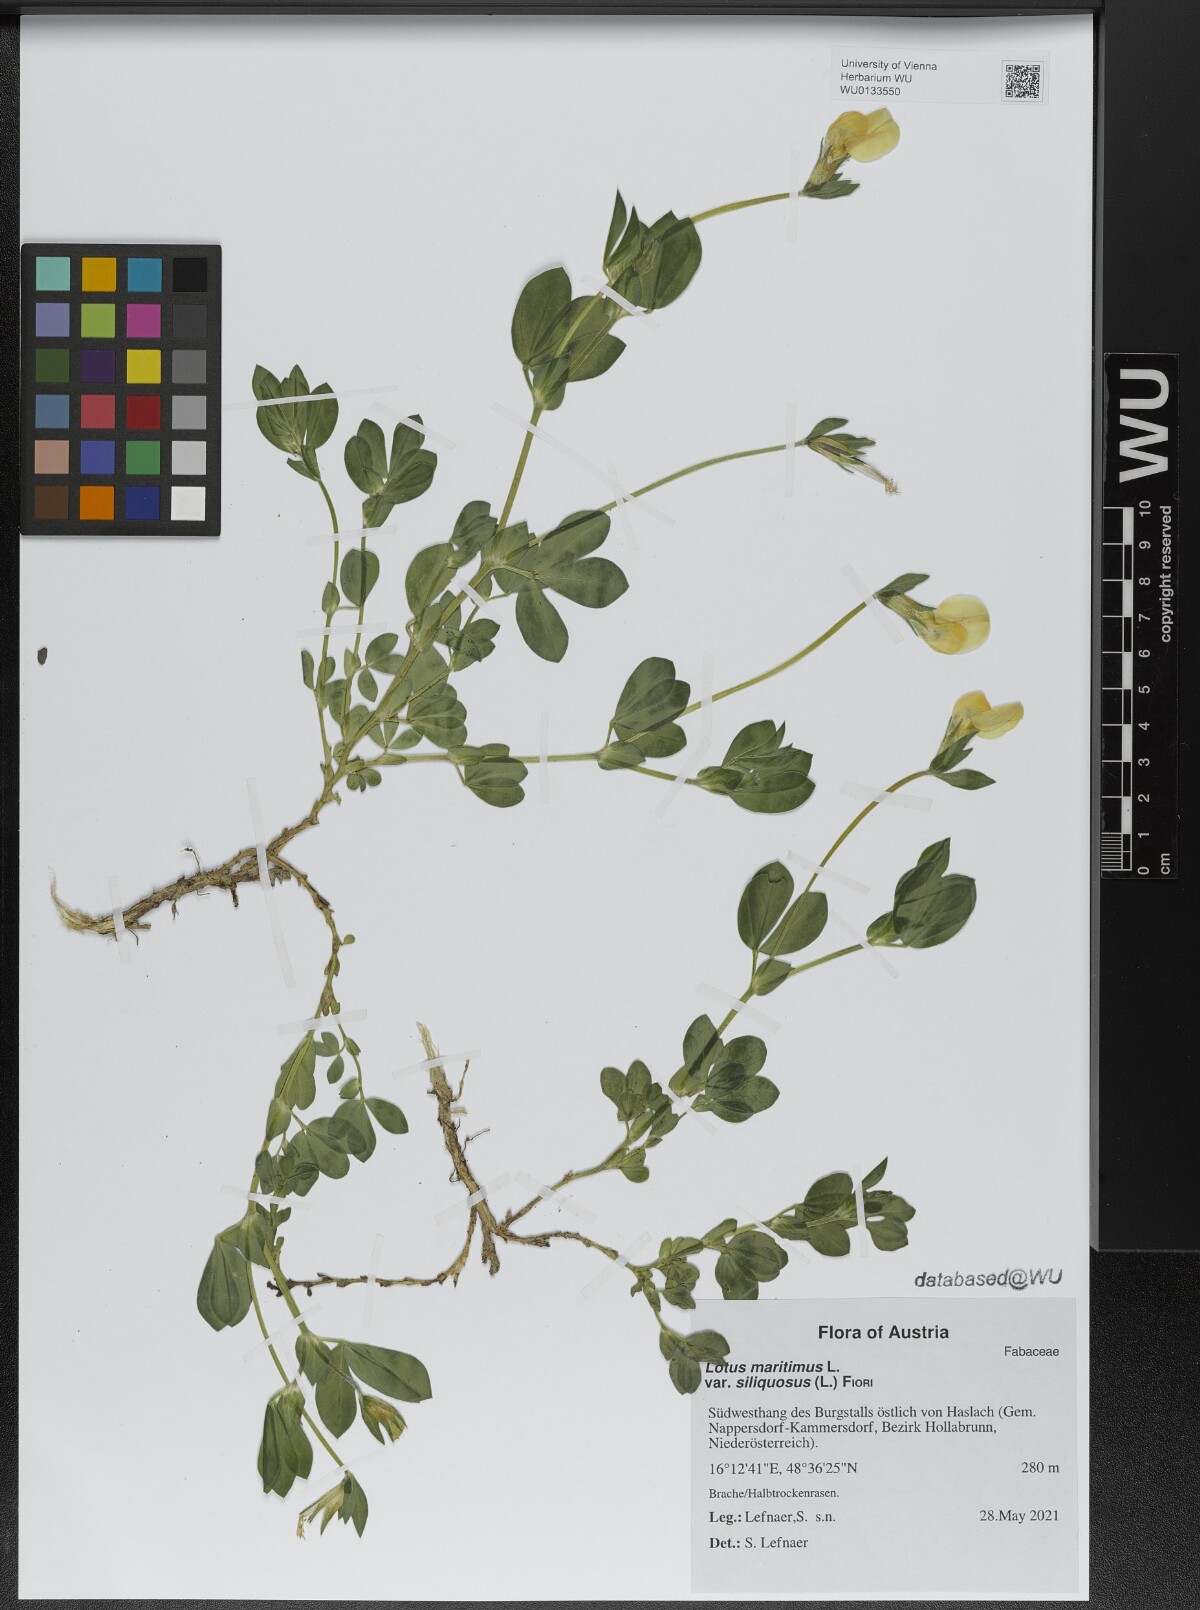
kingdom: Plantae
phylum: Tracheophyta
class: Magnoliopsida
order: Fabales
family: Fabaceae
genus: Lathyrus
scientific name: Lathyrus inconspicuus
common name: Inconspicuous pea
